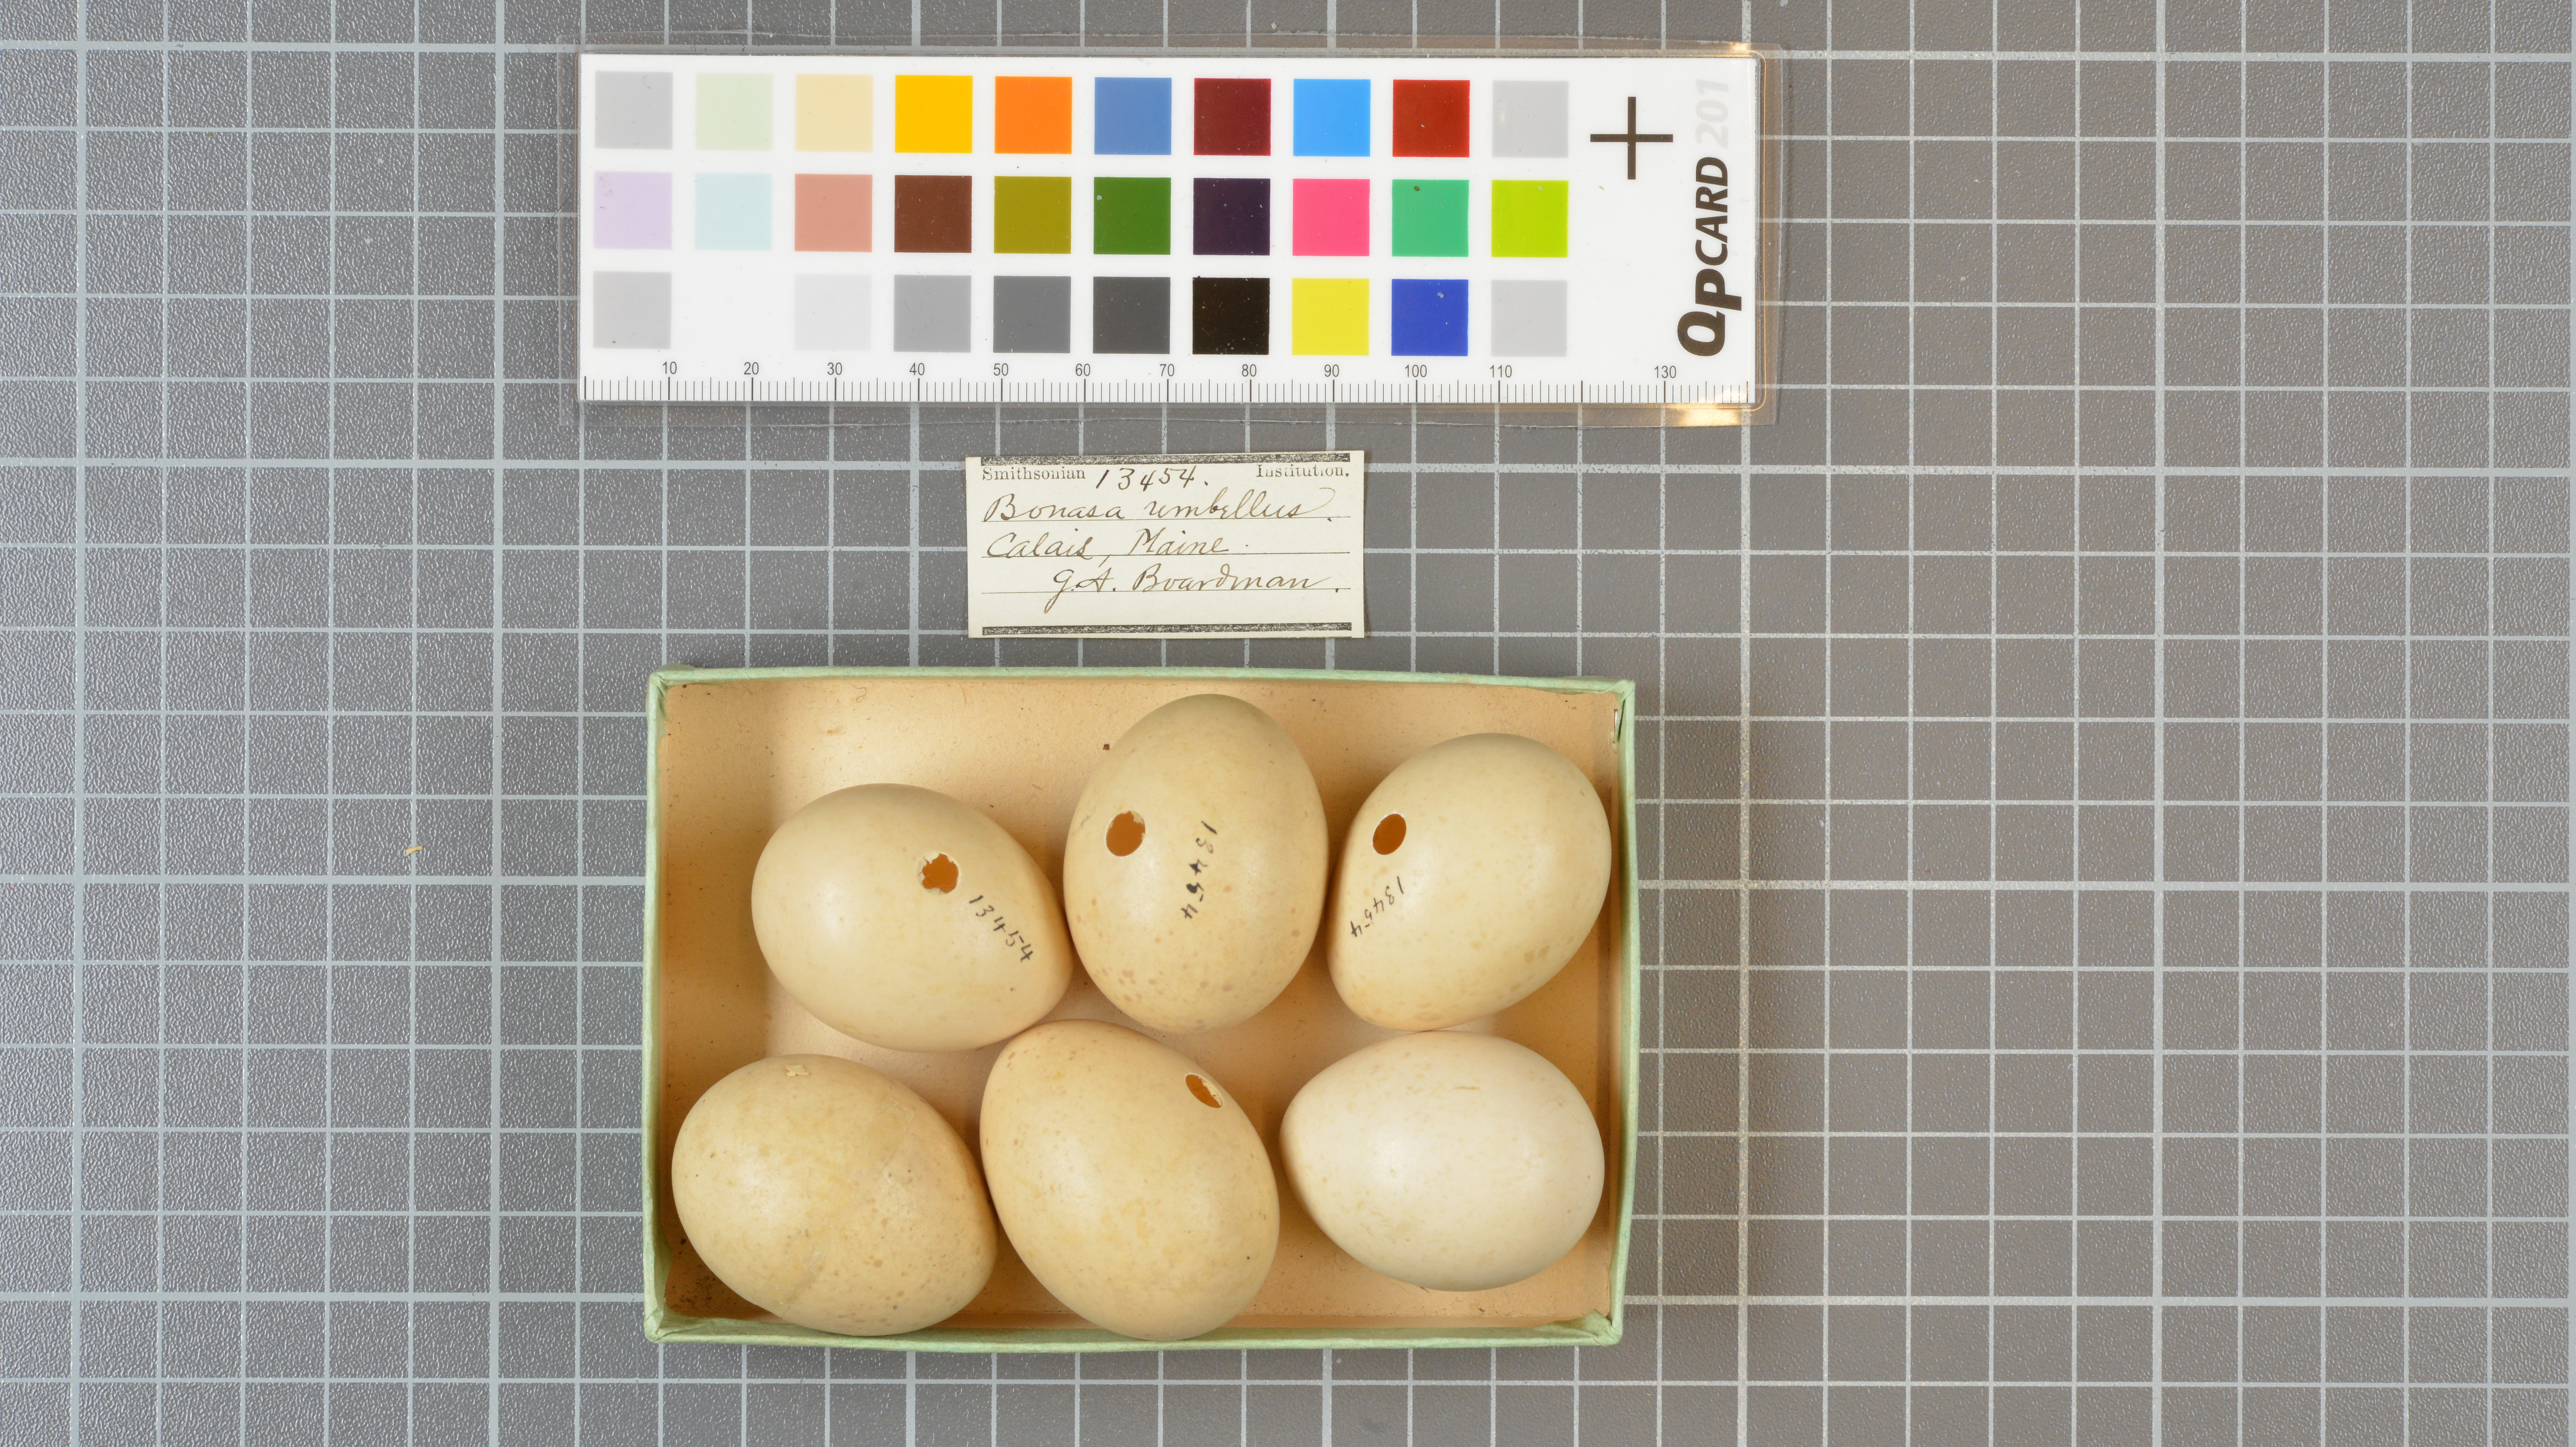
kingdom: Animalia
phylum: Chordata
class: Aves
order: Galliformes
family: Phasianidae
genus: Bonasa
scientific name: Bonasa umbellus
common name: Ruffed grouse
